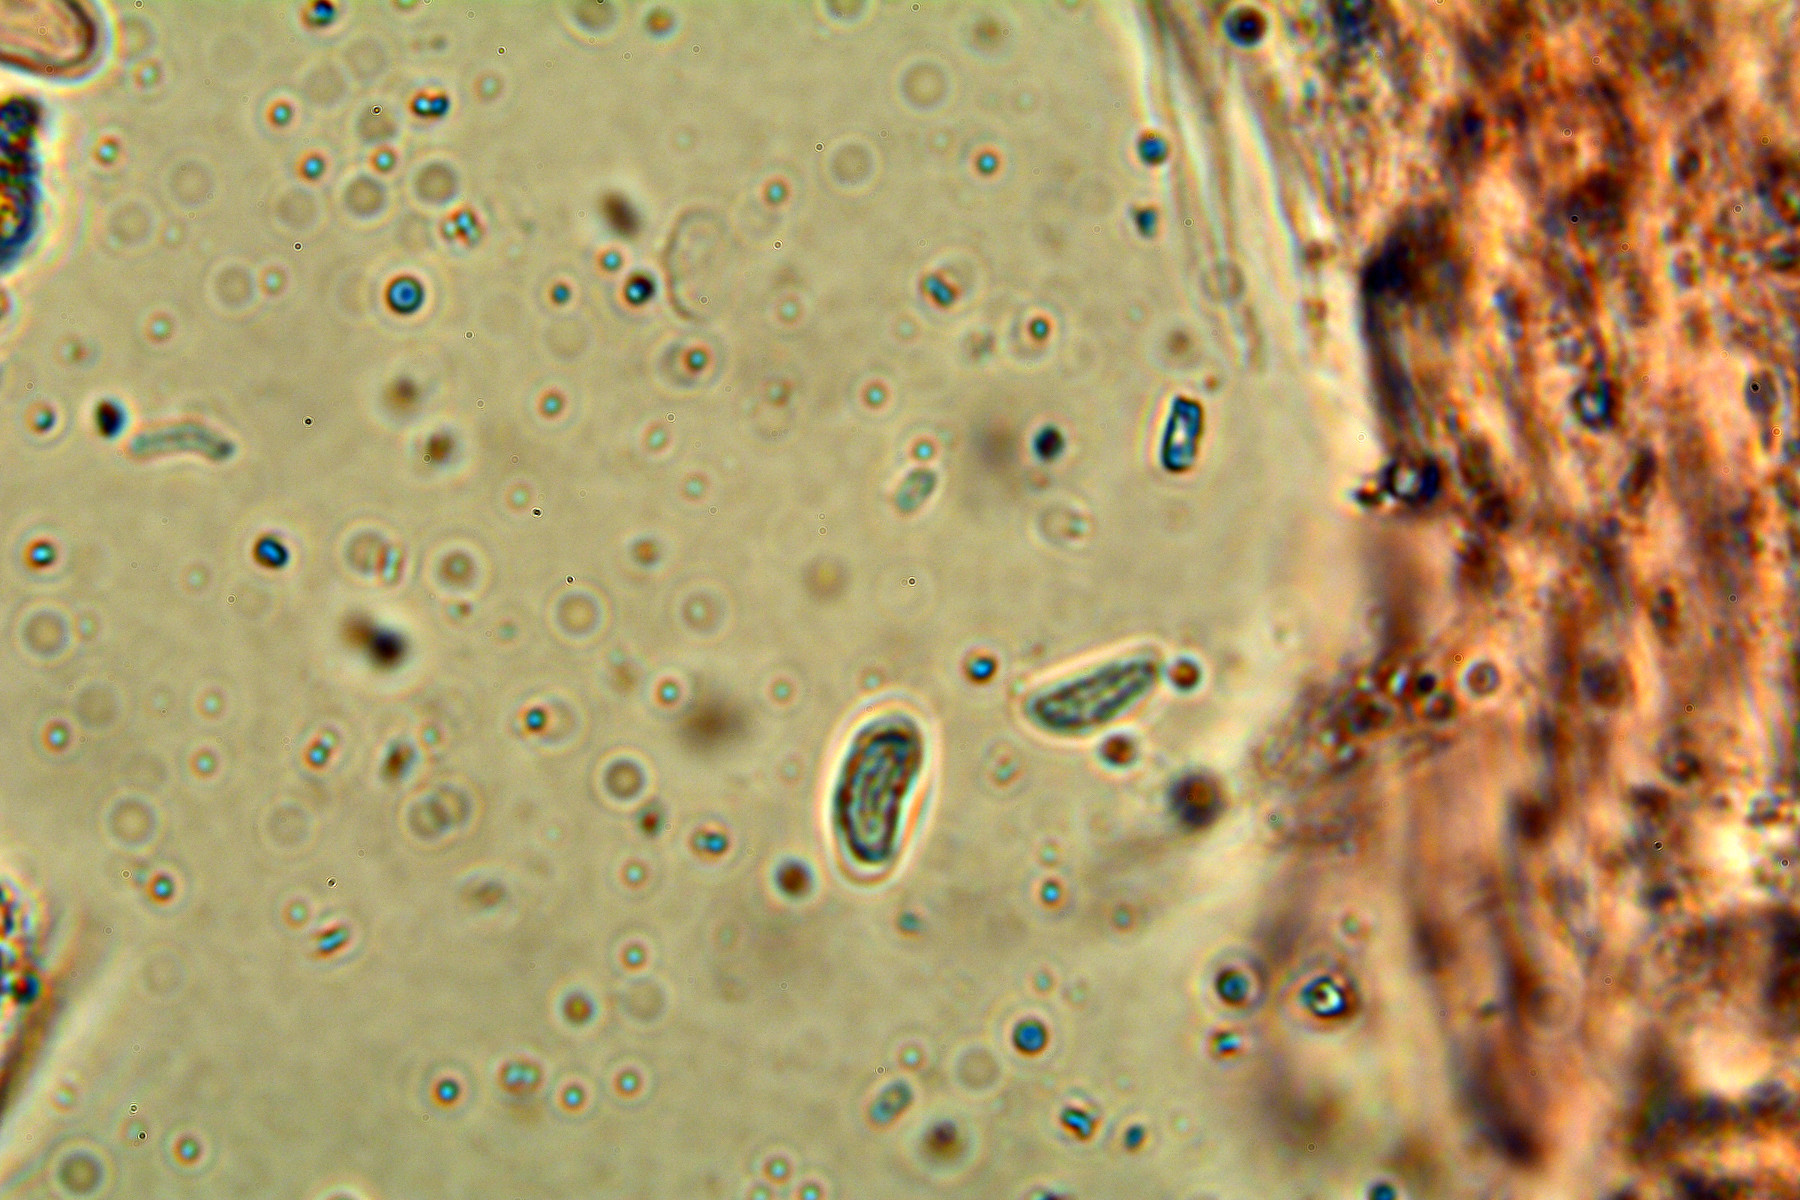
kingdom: Fungi
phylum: Basidiomycota
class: Agaricomycetes
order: Polyporales
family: Phanerochaetaceae
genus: Phanerochaete
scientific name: Phanerochaete velutina
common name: dunet randtråd
